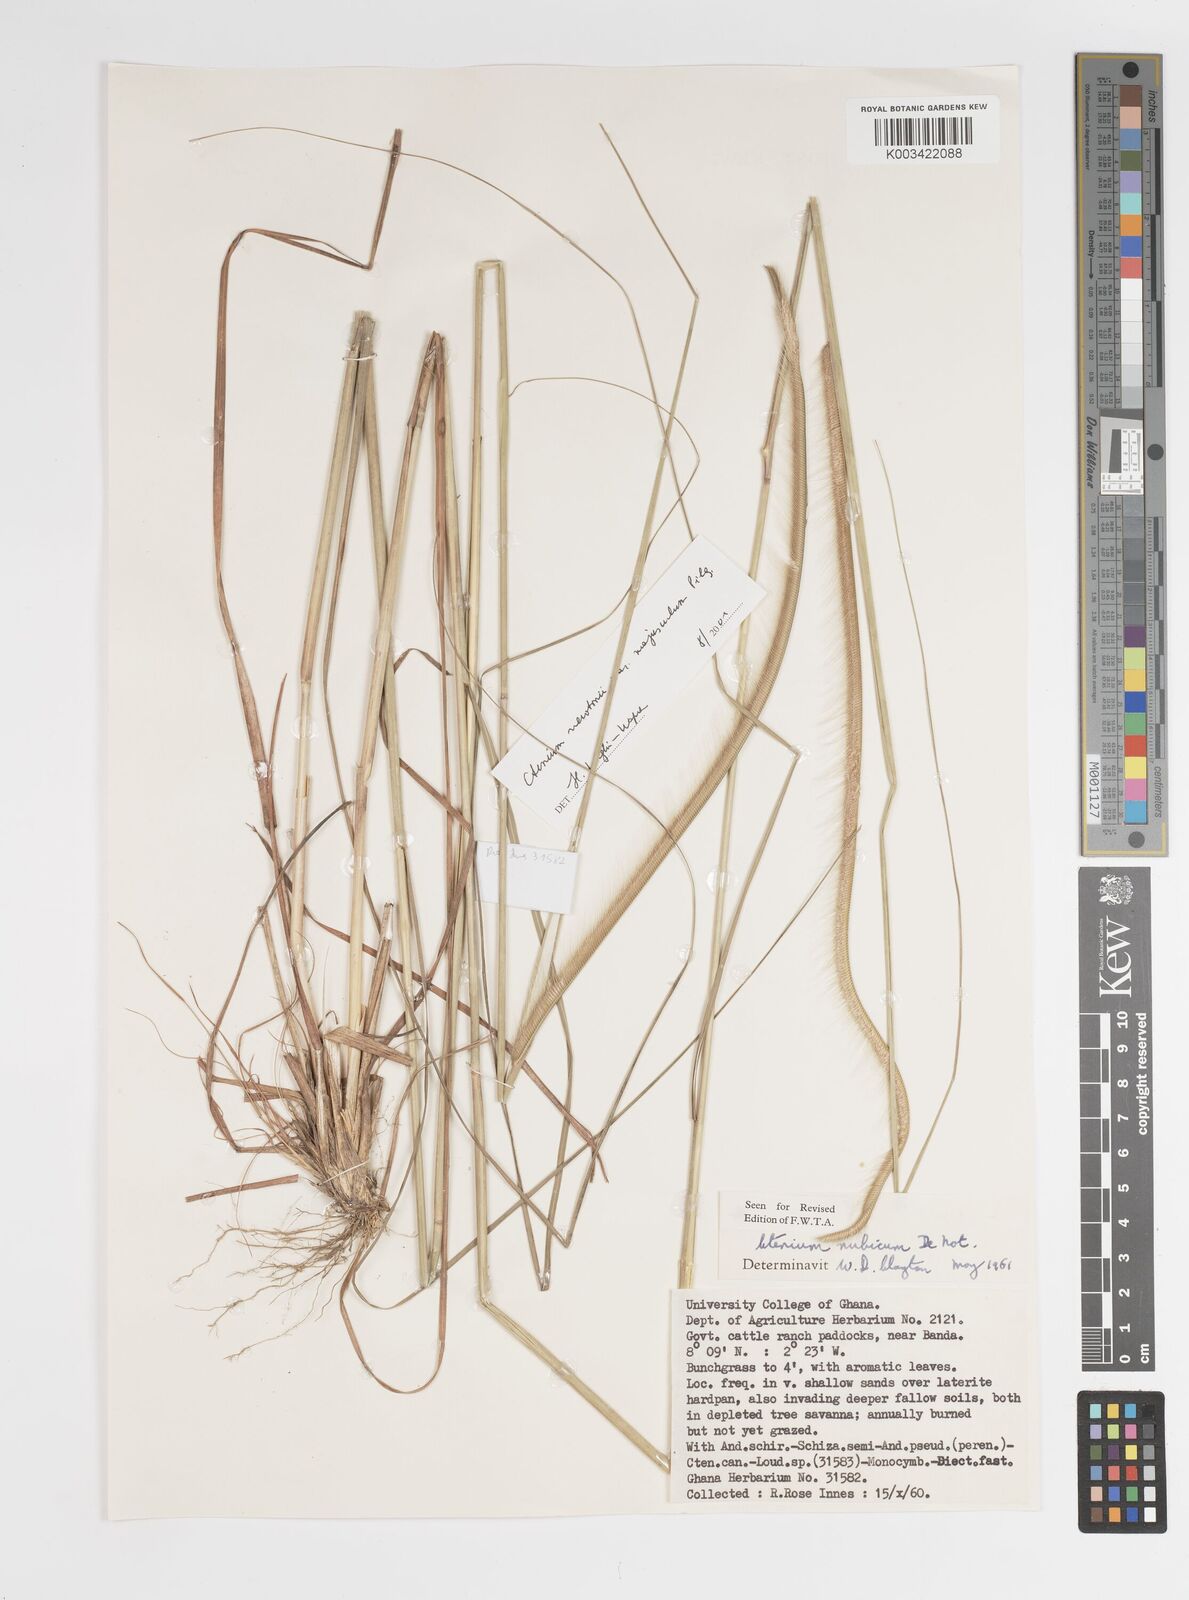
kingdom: Plantae
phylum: Tracheophyta
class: Liliopsida
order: Poales
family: Poaceae
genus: Ctenium
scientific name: Ctenium newtonii
